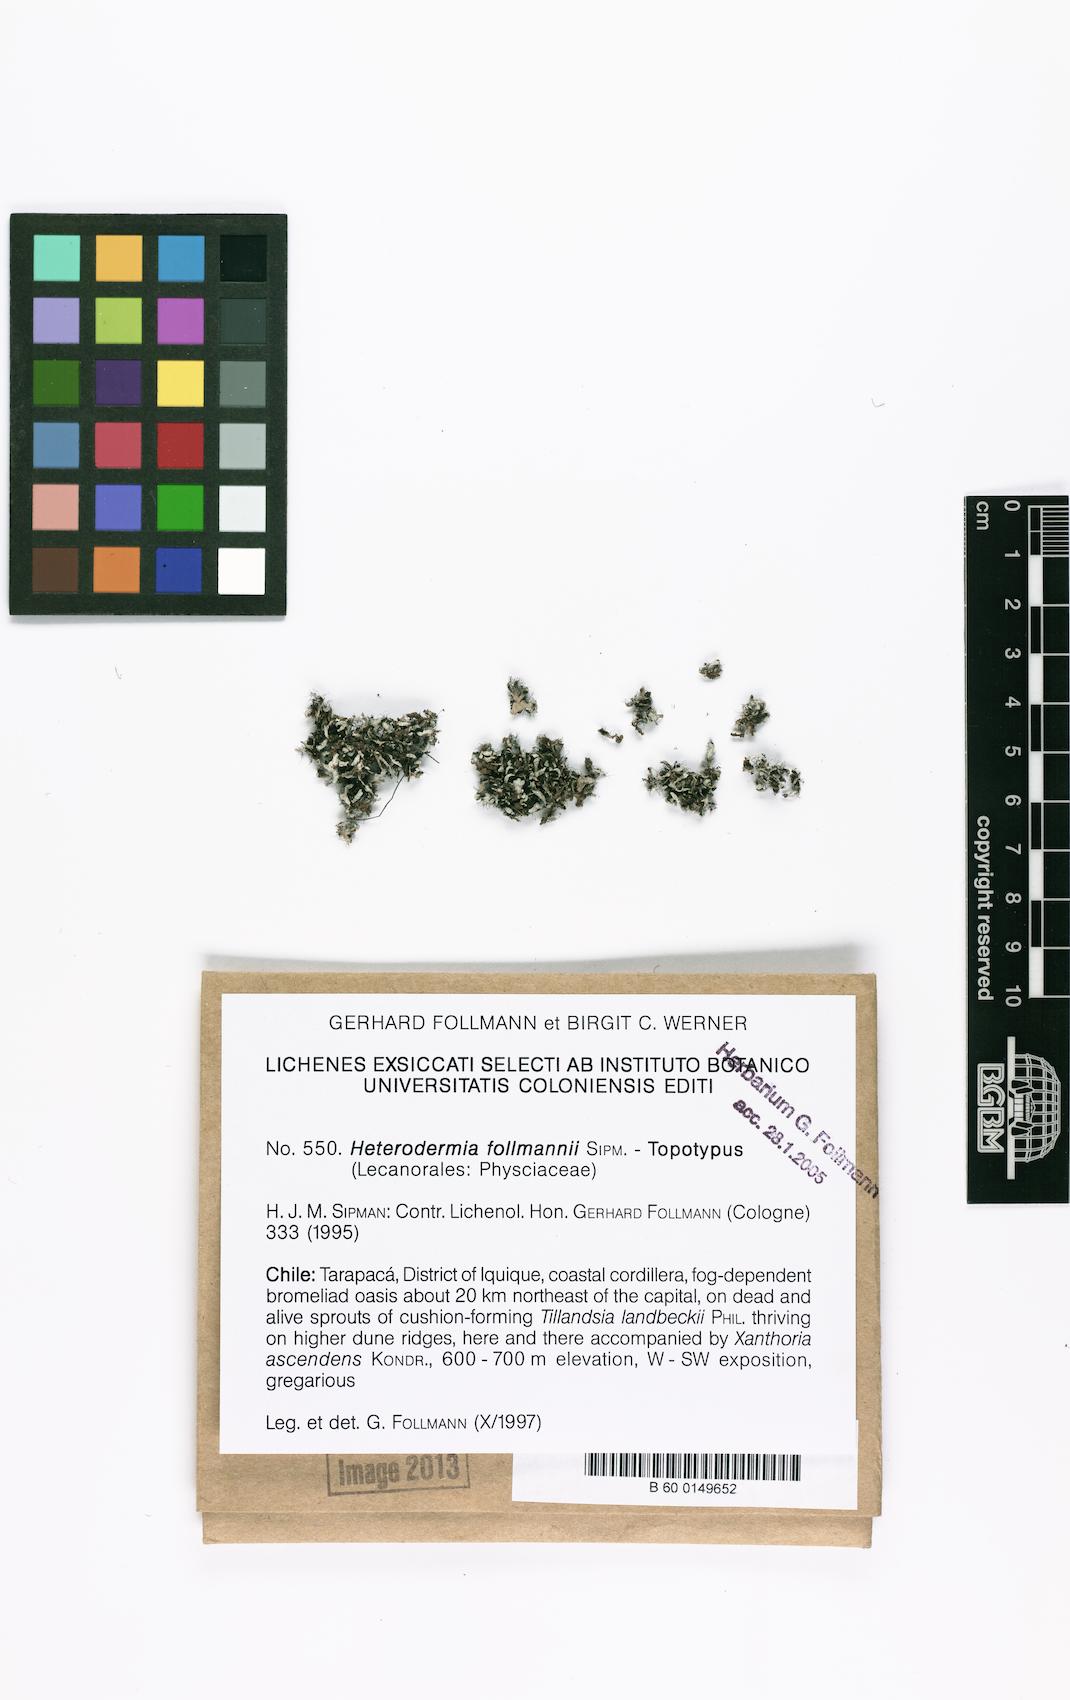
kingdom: Fungi
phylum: Ascomycota
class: Lecanoromycetes
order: Caliciales
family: Physciaceae
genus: Heterodermia
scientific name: Heterodermia follmannii
